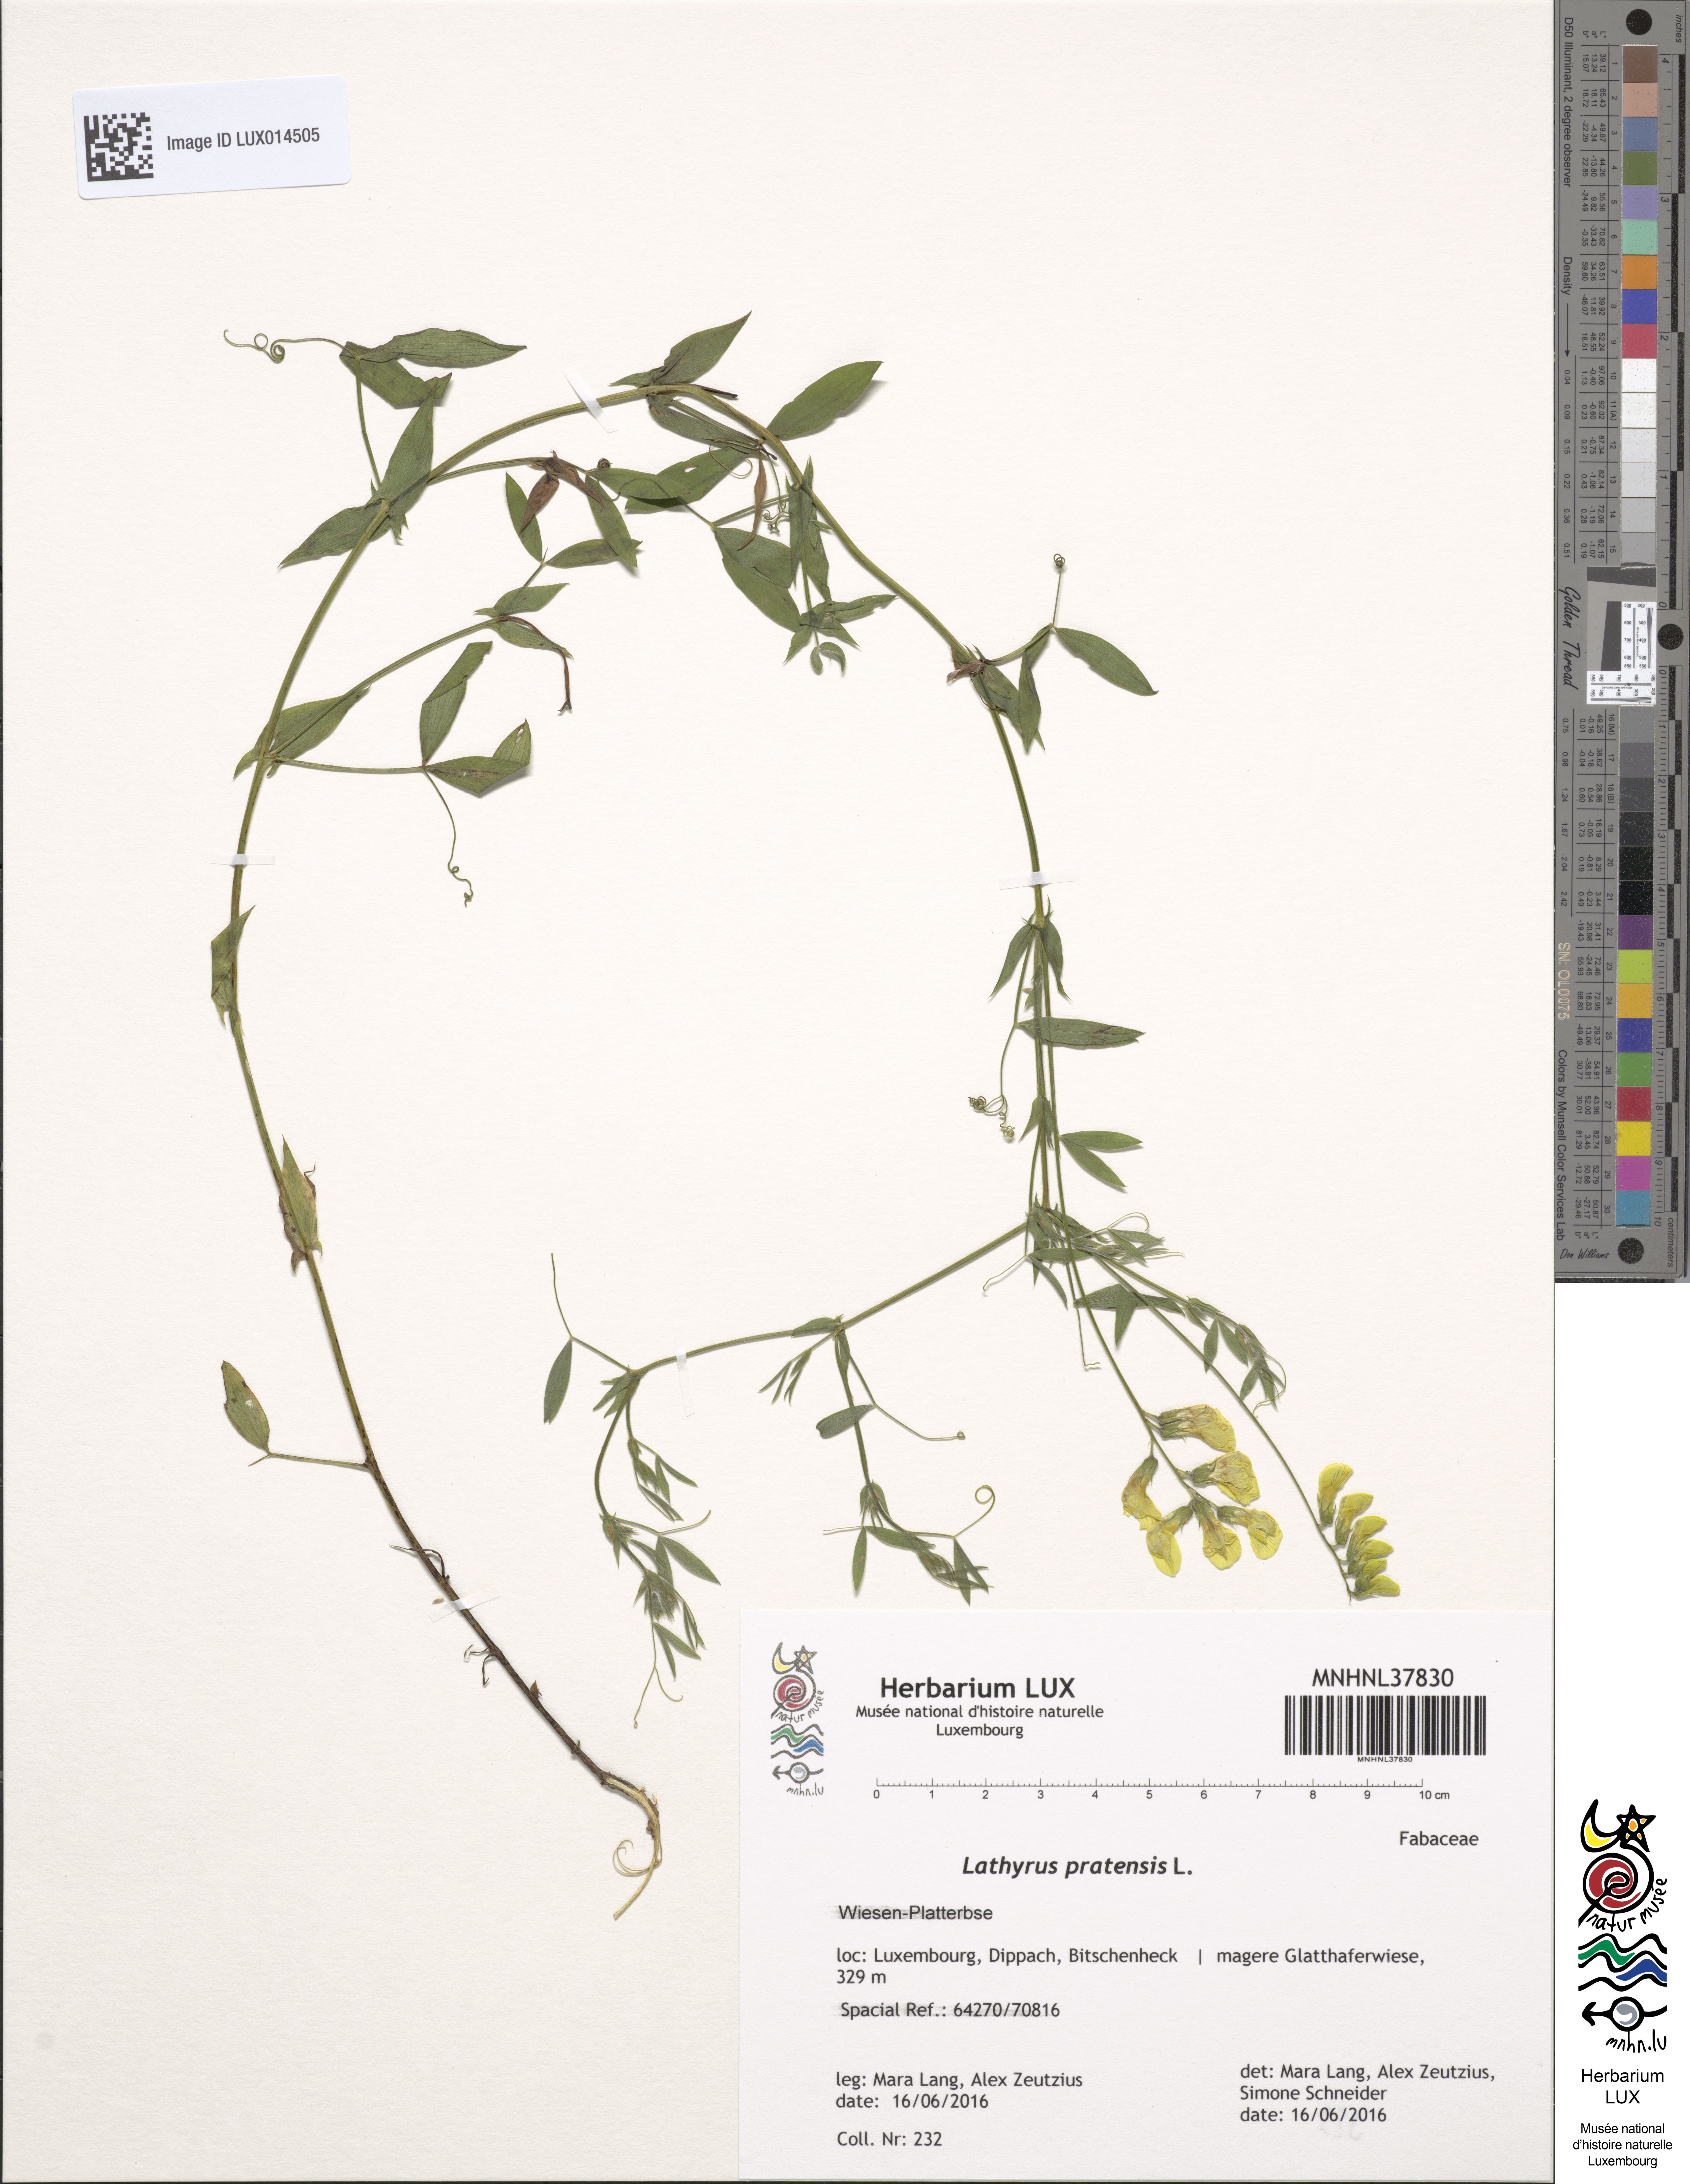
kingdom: Plantae
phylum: Tracheophyta
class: Magnoliopsida
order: Fabales
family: Fabaceae
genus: Lathyrus
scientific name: Lathyrus pratensis
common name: Meadow vetchling
